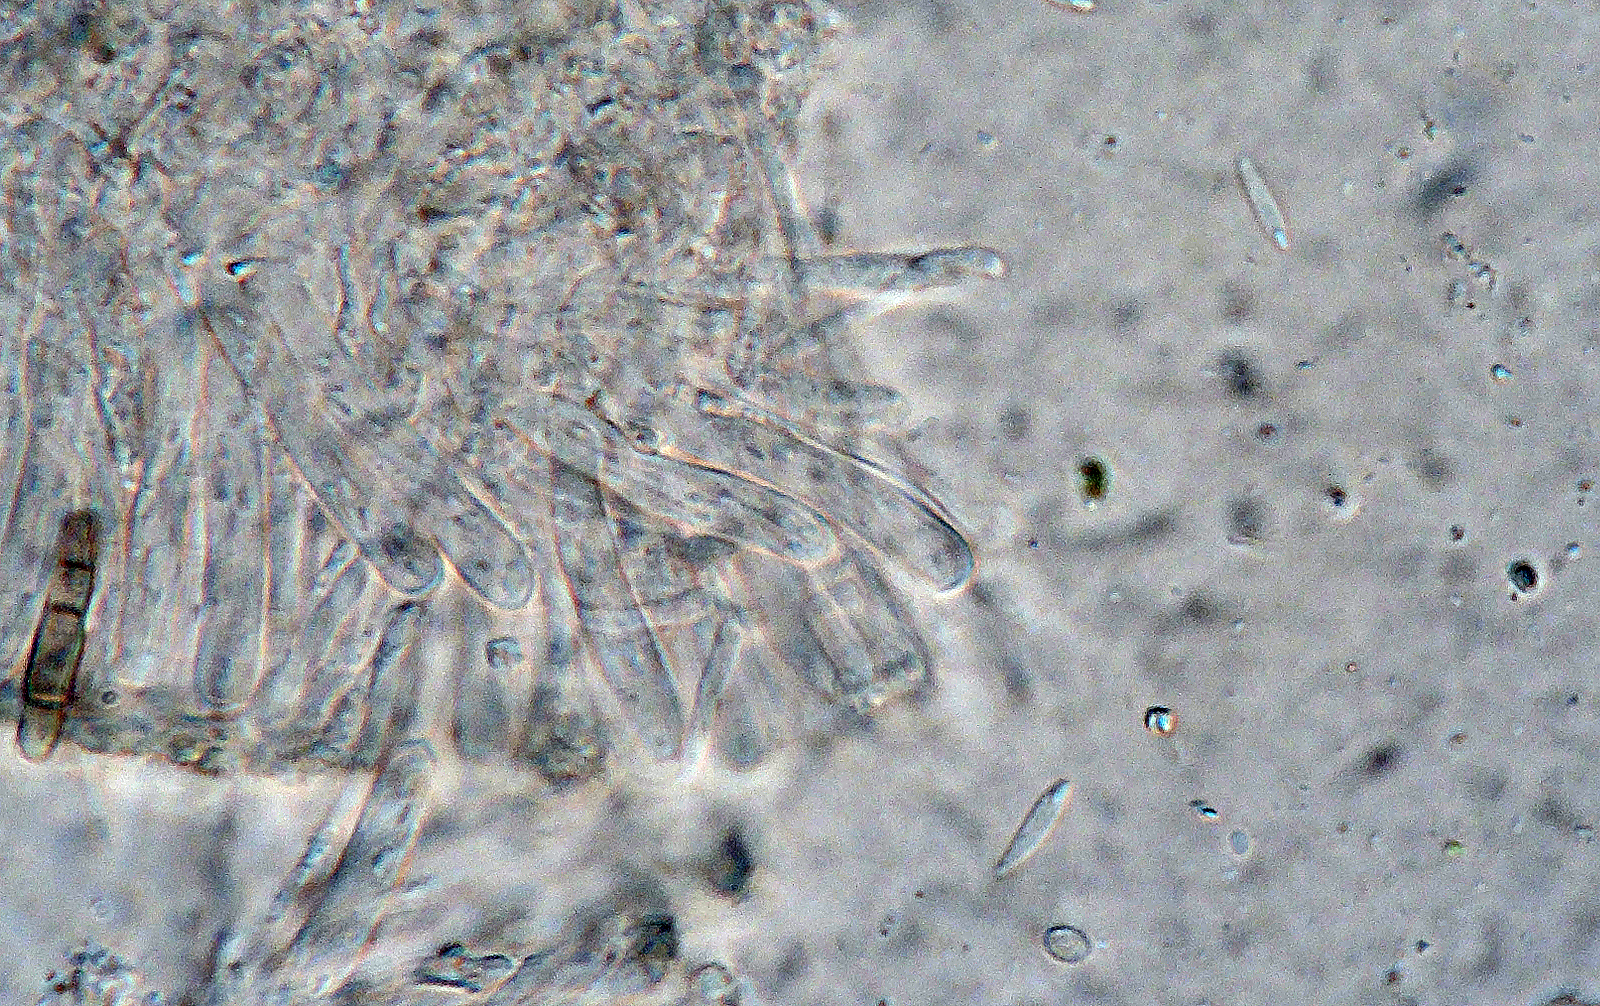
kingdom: Fungi
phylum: Ascomycota
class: Orbiliomycetes
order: Orbiliales
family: Orbiliaceae
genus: Orbilia
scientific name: Orbilia aprilis
